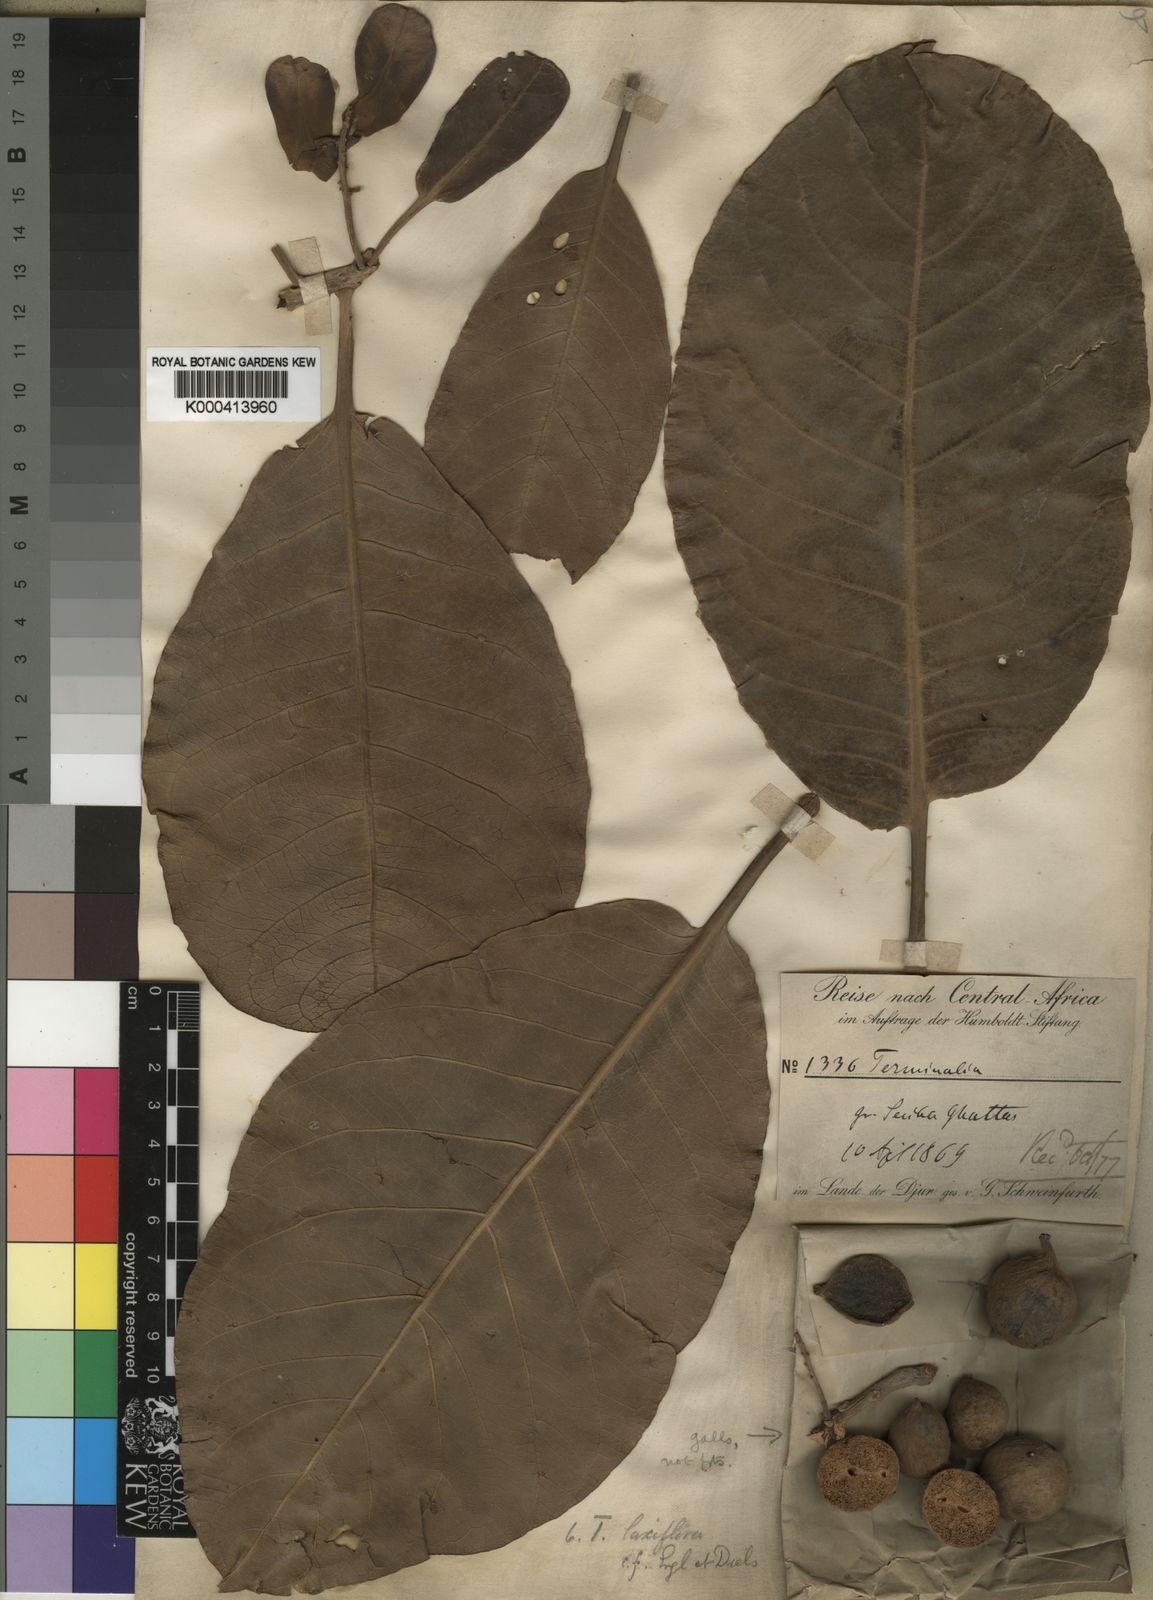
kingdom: Plantae
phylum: Tracheophyta
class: Magnoliopsida
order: Myrtales
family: Combretaceae
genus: Terminalia
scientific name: Terminalia laxiflora
